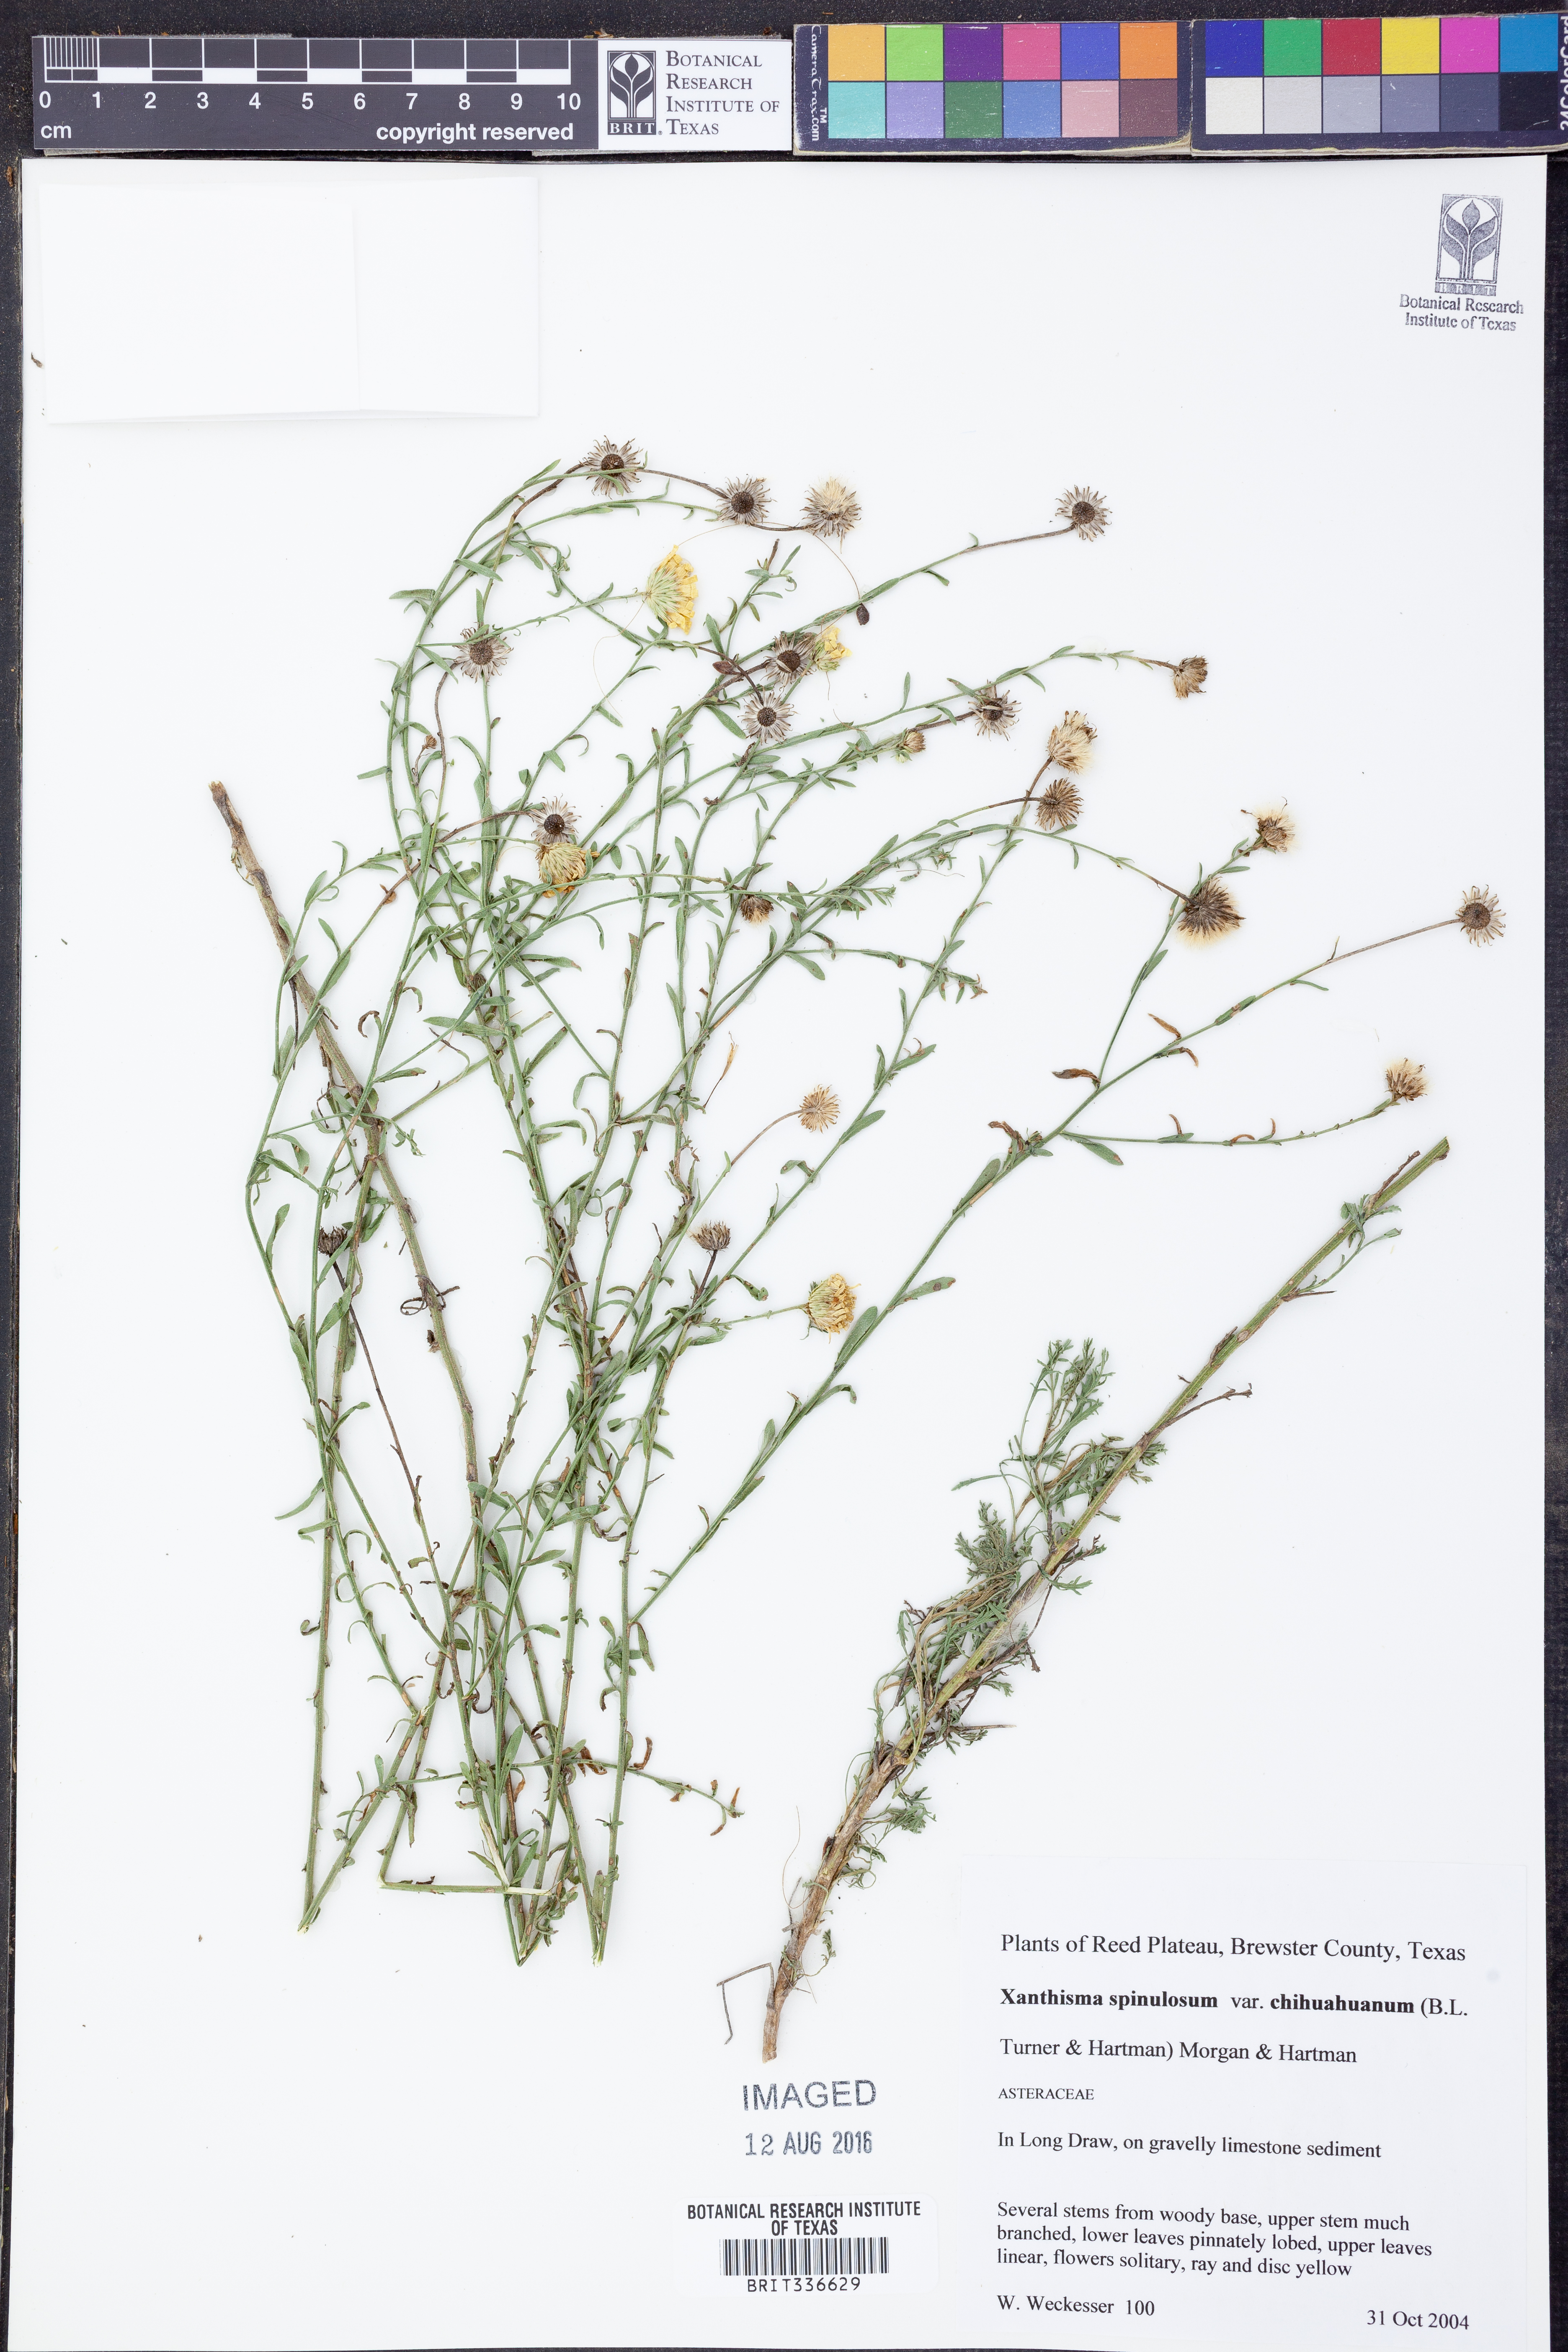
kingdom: Plantae
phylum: Tracheophyta
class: Magnoliopsida
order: Asterales
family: Asteraceae
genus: Xanthisma
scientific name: Xanthisma spinulosum
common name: Spiny goldenweed
